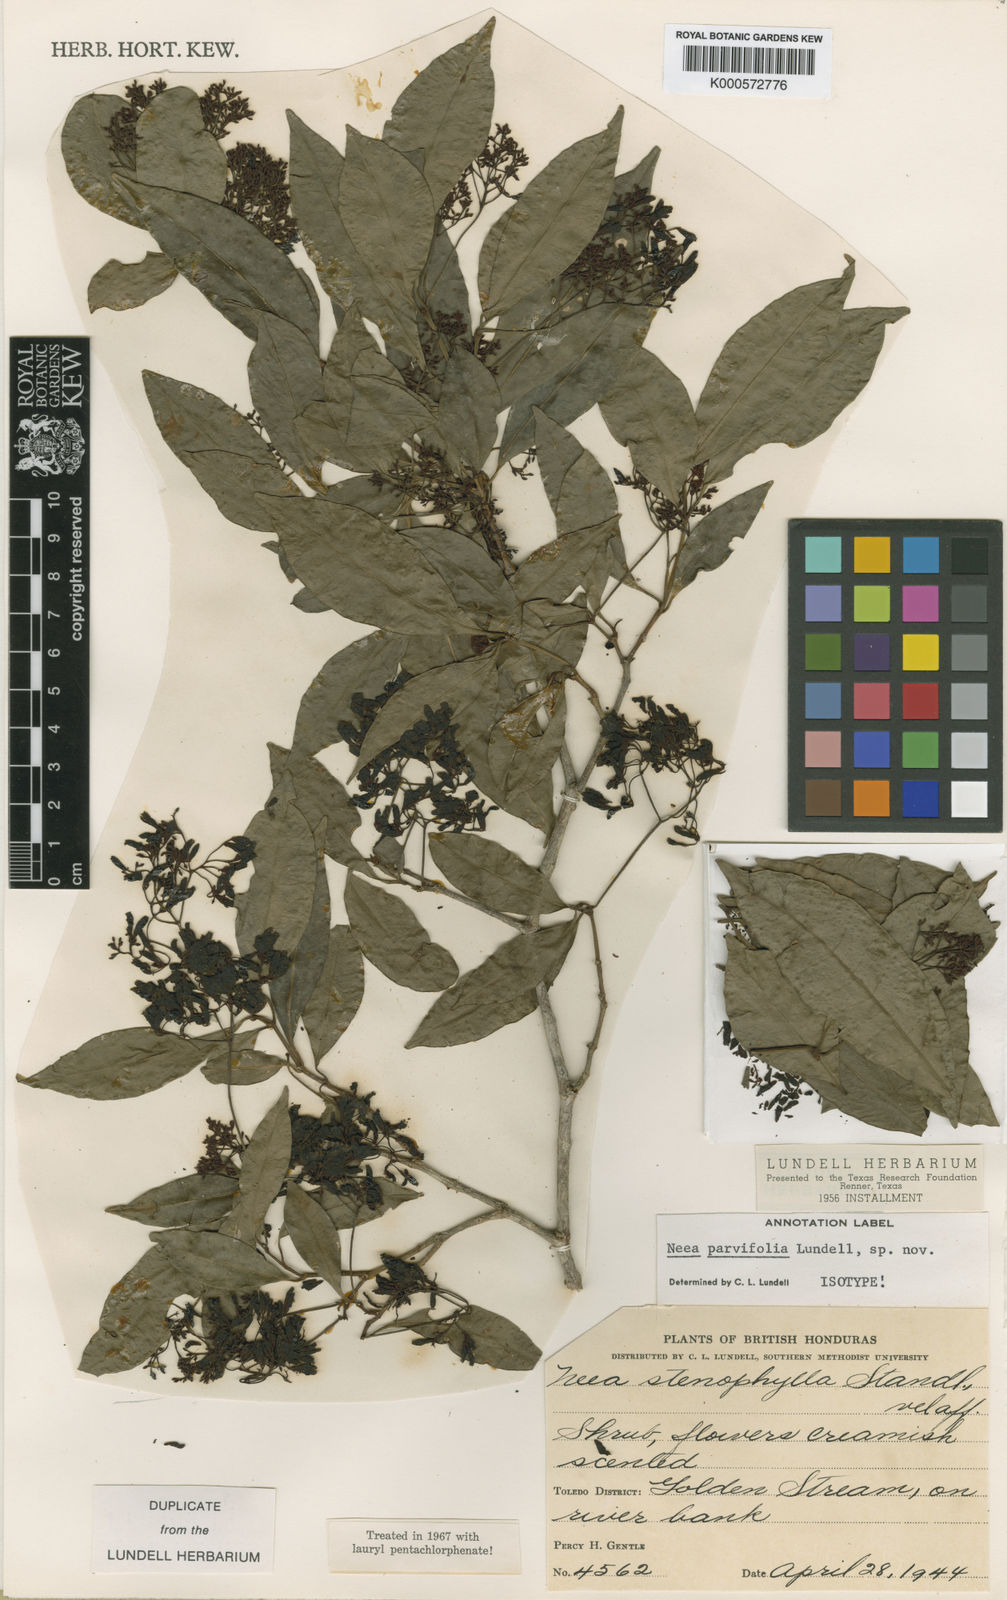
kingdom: Plantae
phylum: Tracheophyta
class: Magnoliopsida
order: Caryophyllales
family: Nyctaginaceae
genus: Neea
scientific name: Neea stenophylla
